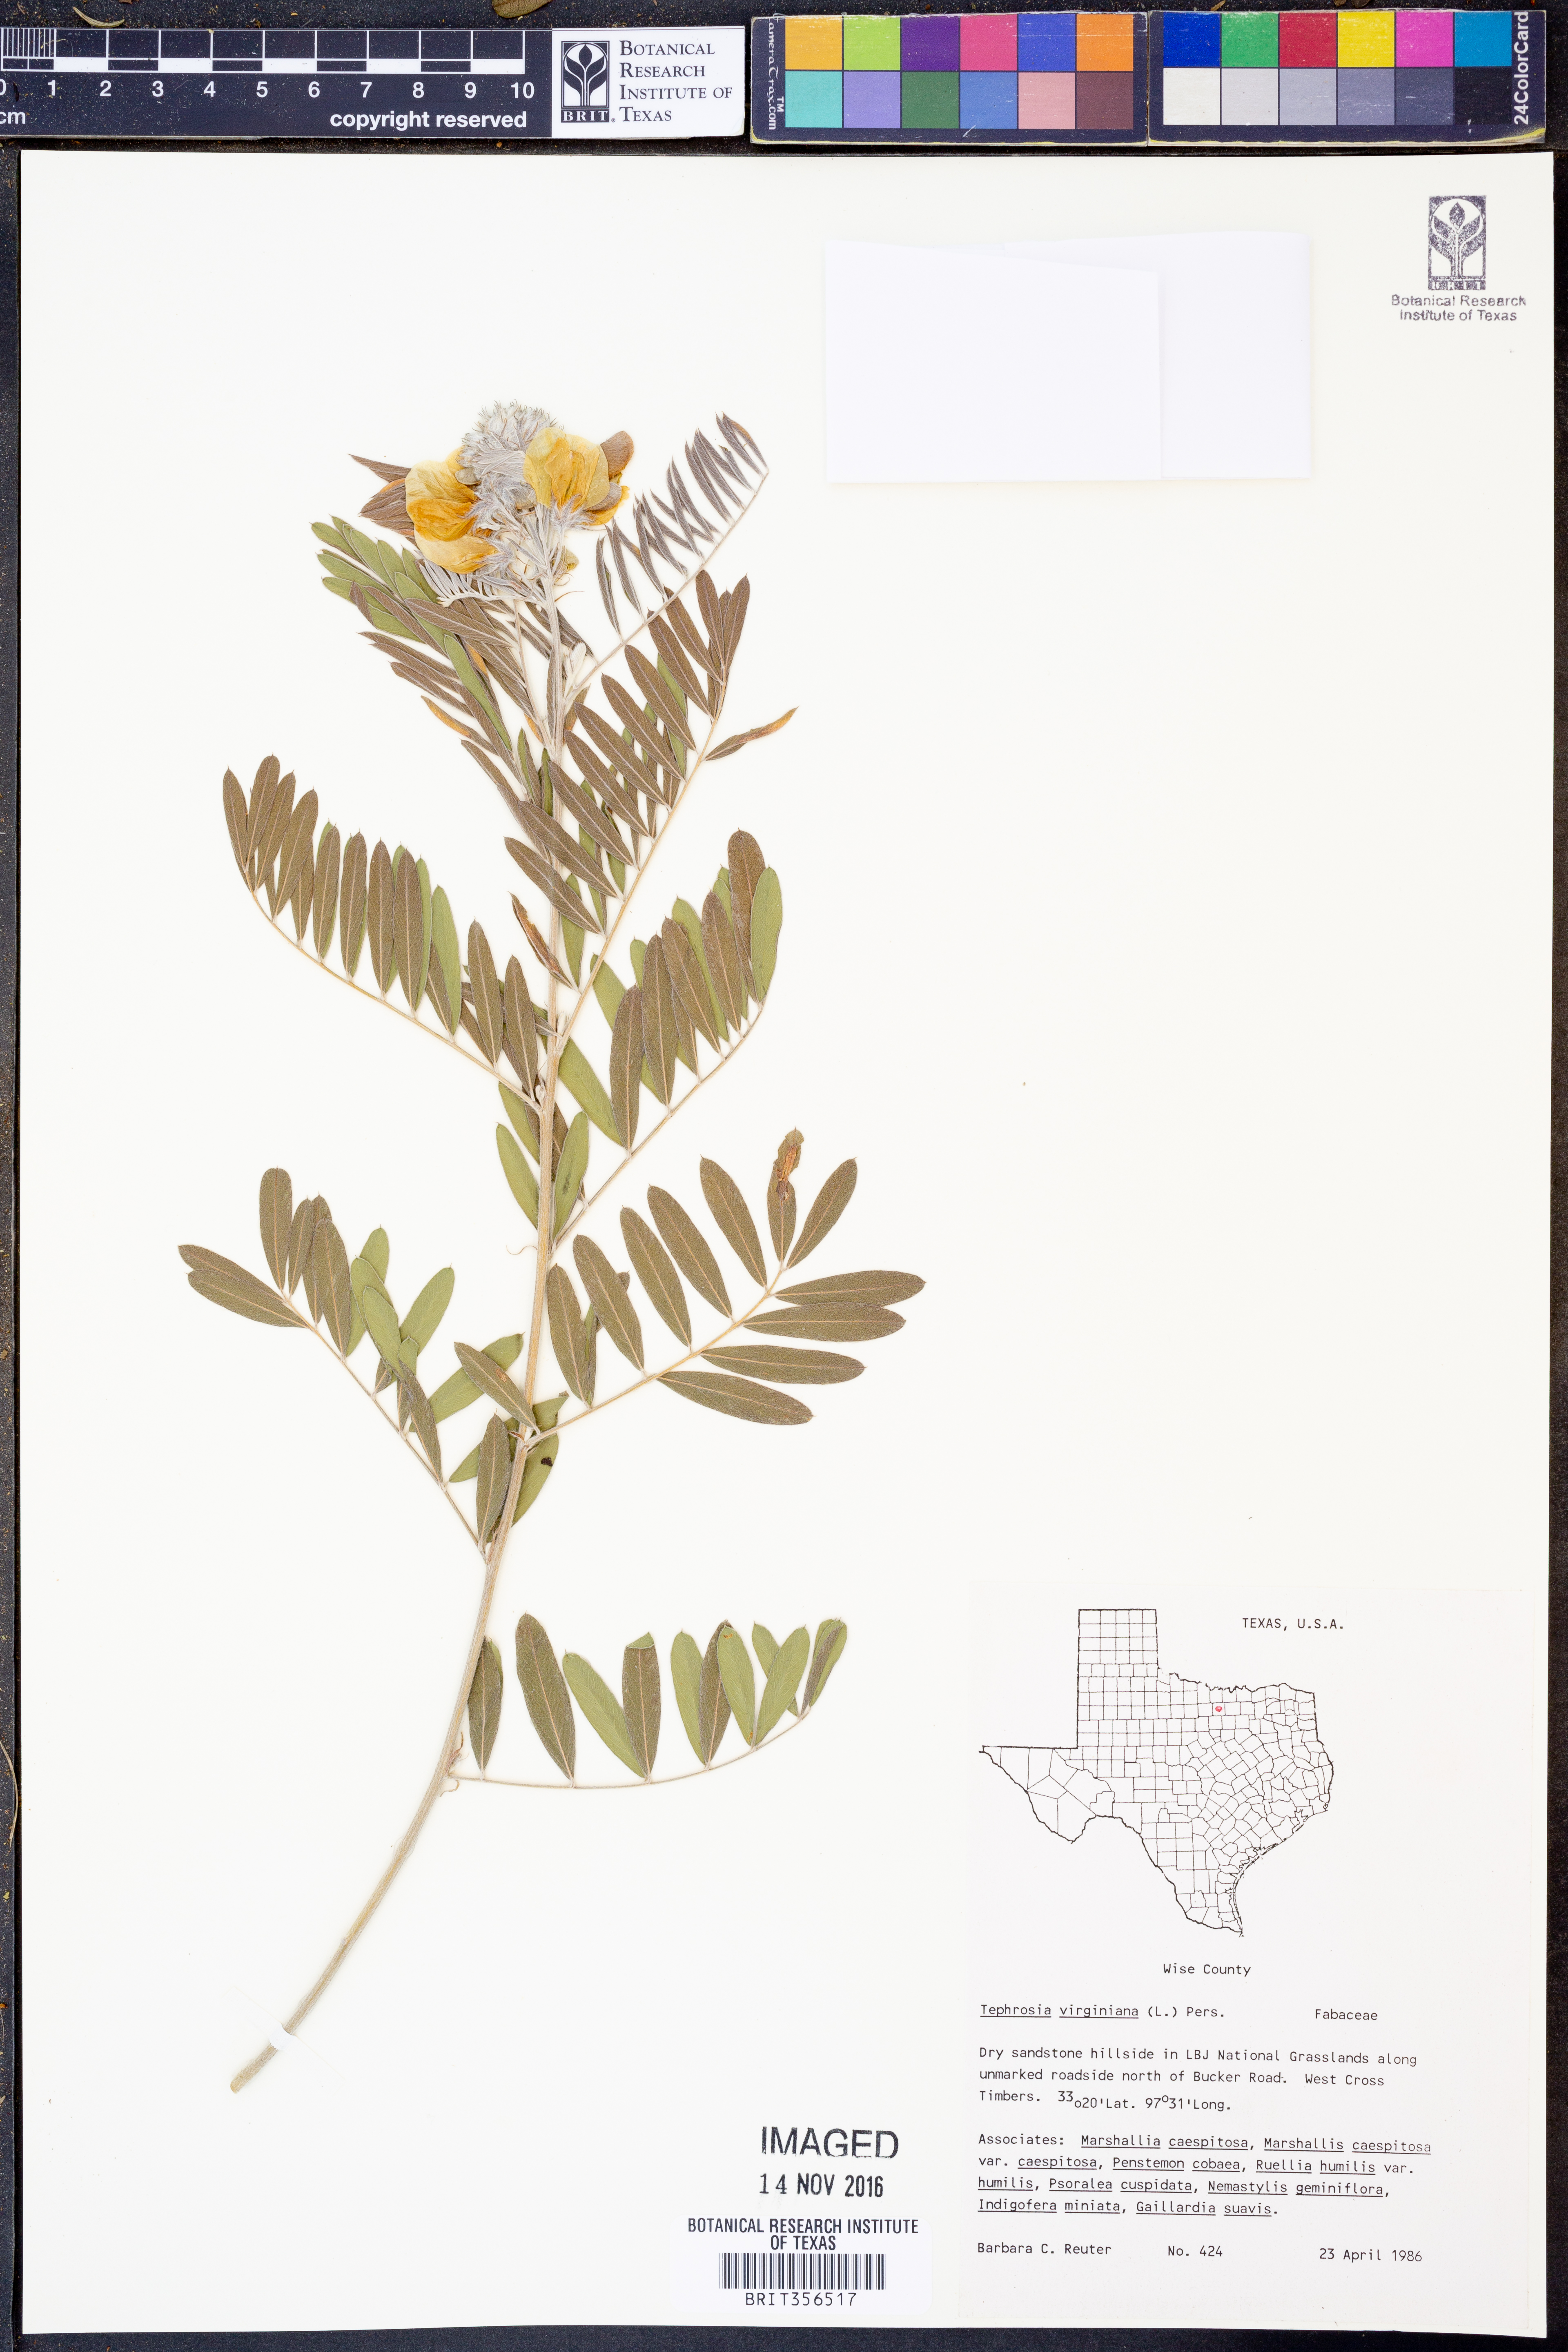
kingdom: Plantae
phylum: Tracheophyta
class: Magnoliopsida
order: Fabales
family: Fabaceae
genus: Tephrosia
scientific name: Tephrosia virginiana
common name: Rabbit-pea
